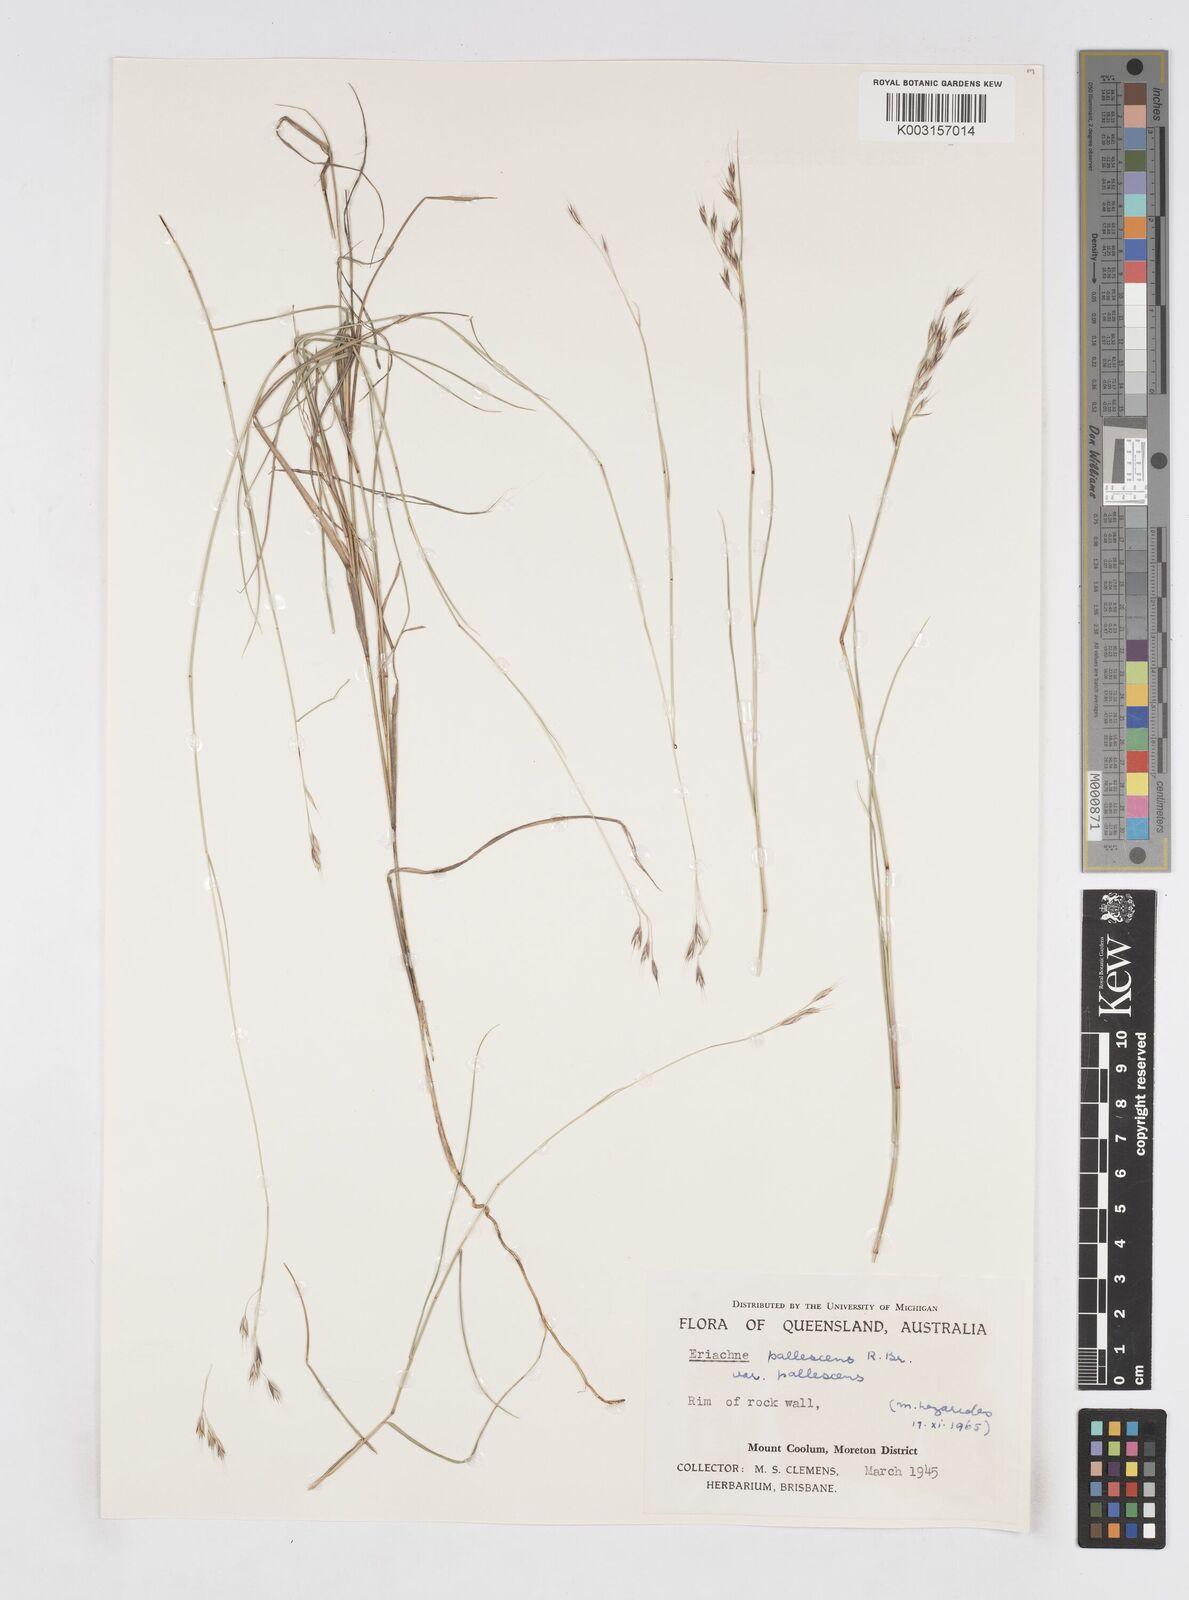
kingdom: Plantae
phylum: Tracheophyta
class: Liliopsida
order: Poales
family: Poaceae
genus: Eriachne
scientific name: Eriachne pallescens
